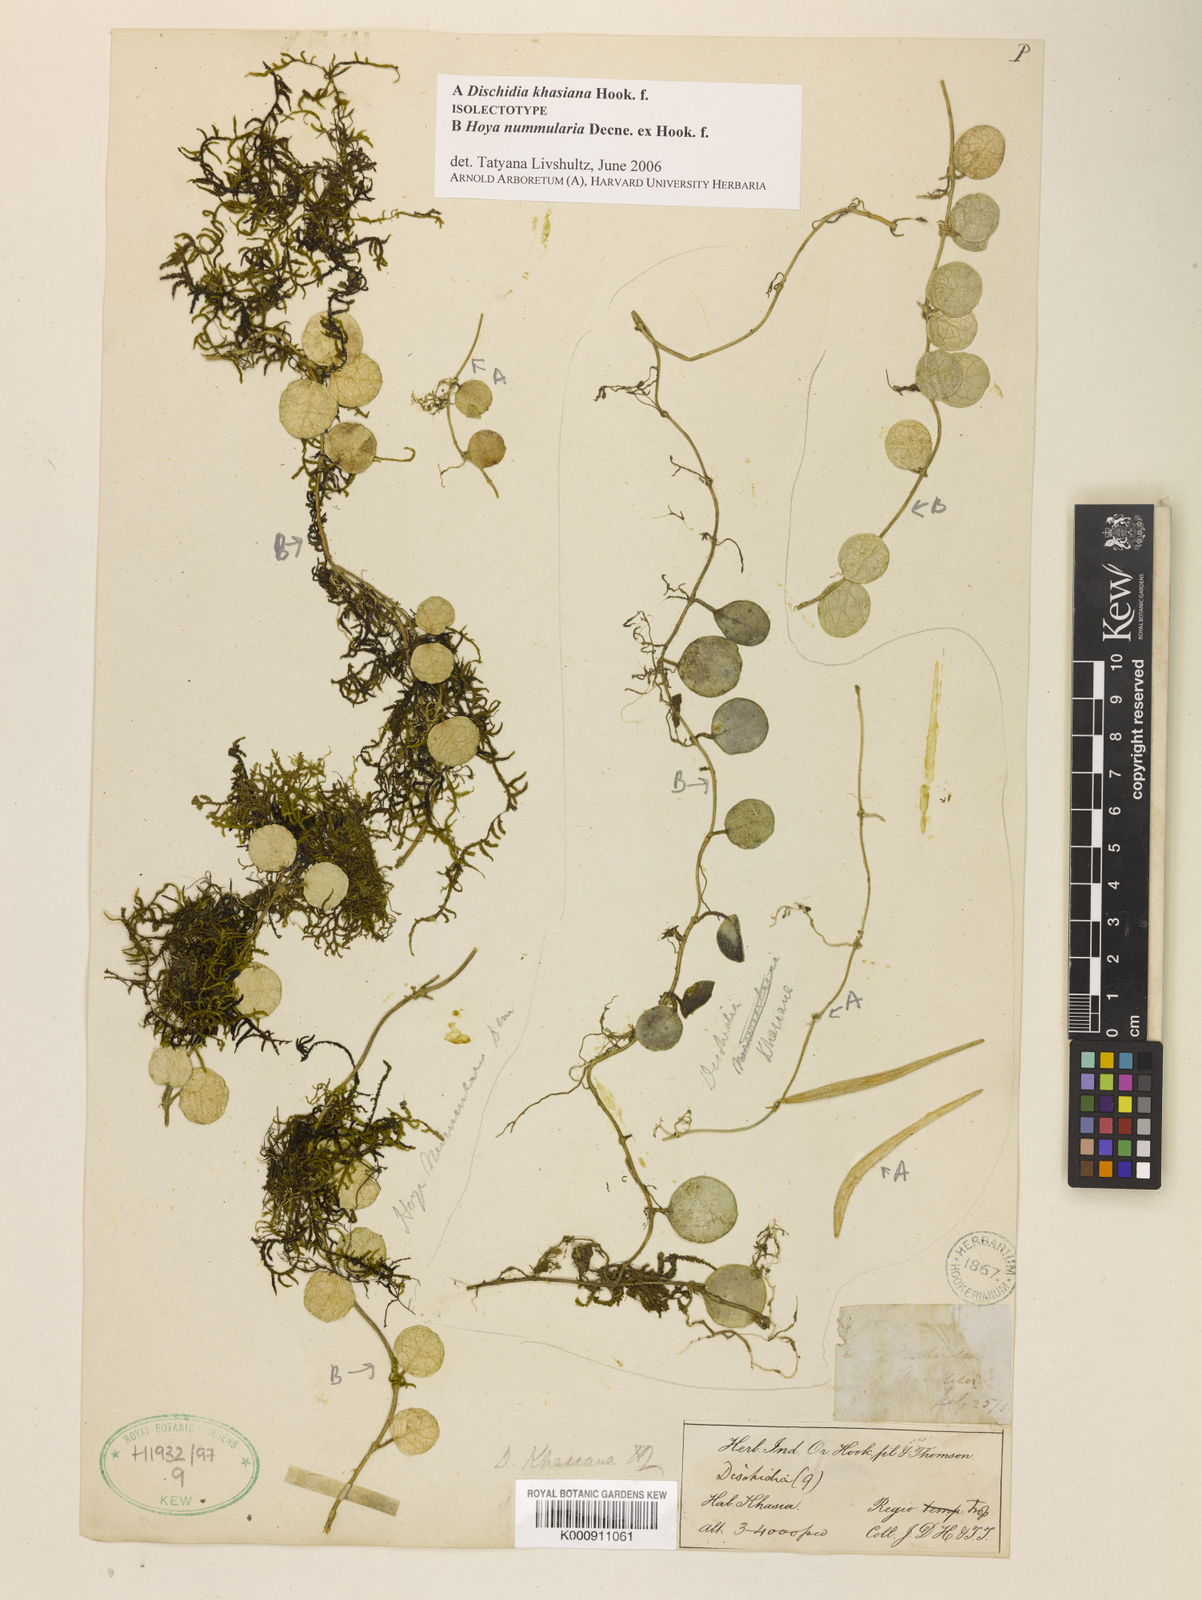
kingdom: Plantae
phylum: Tracheophyta
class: Magnoliopsida
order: Gentianales
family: Apocynaceae
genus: Dischidia
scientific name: Dischidia khasiana
